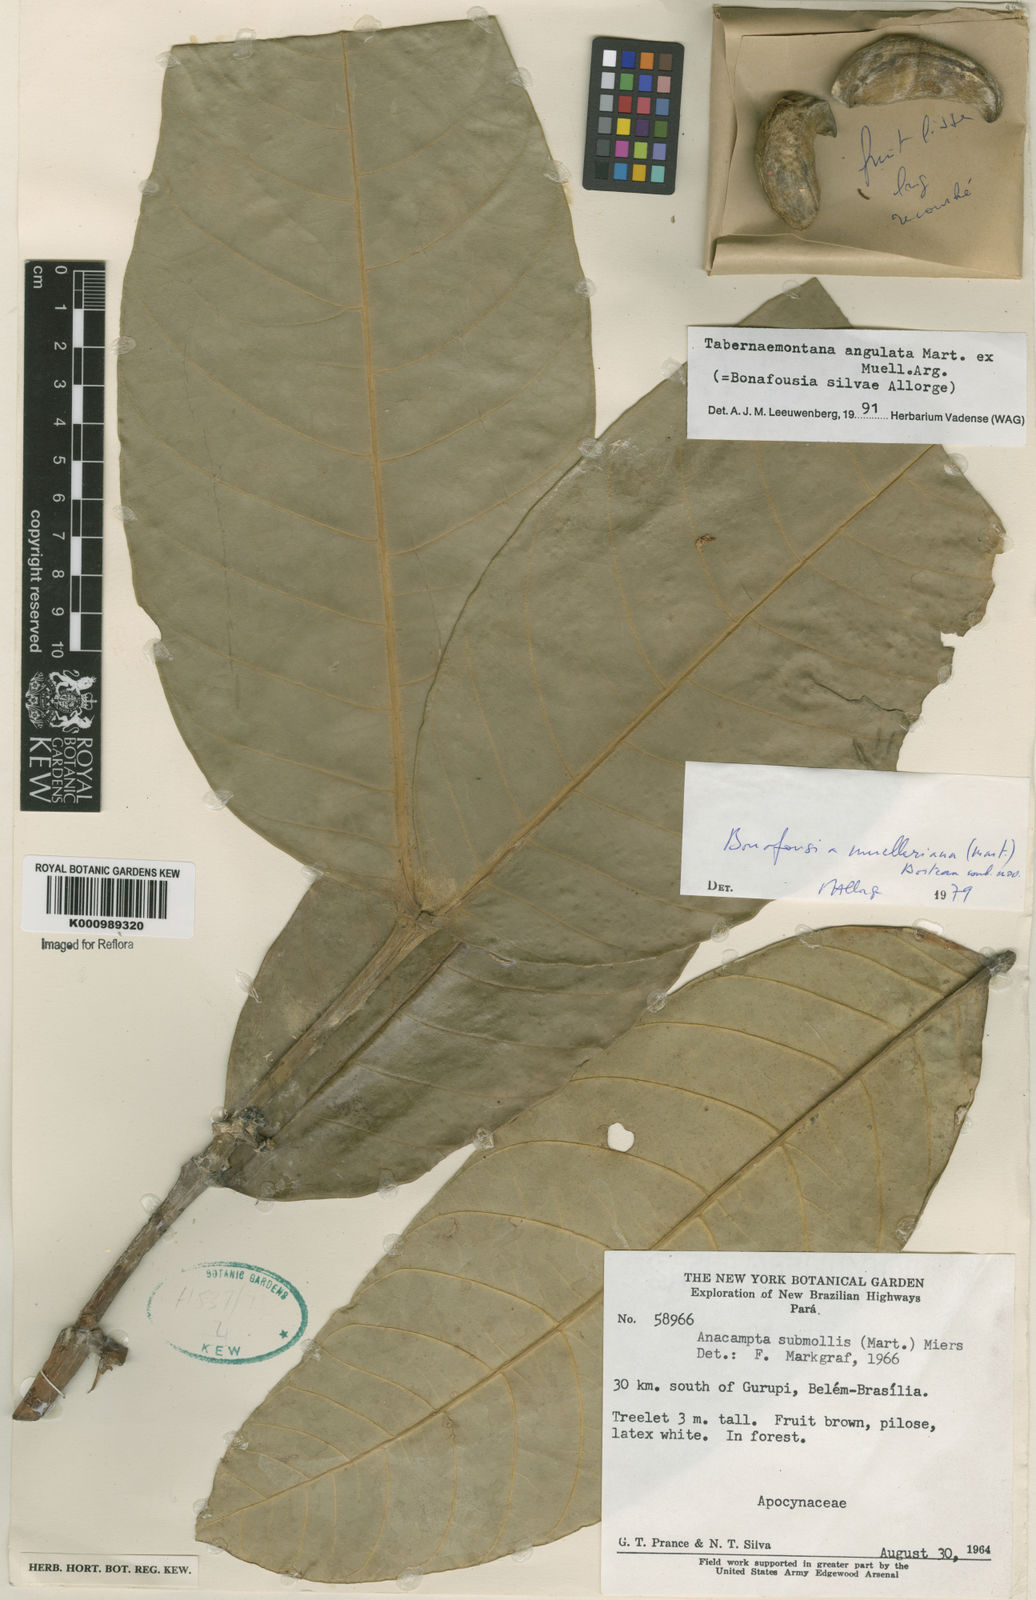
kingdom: Plantae
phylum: Tracheophyta
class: Magnoliopsida
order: Gentianales
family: Apocynaceae
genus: Tabernaemontana
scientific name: Tabernaemontana
